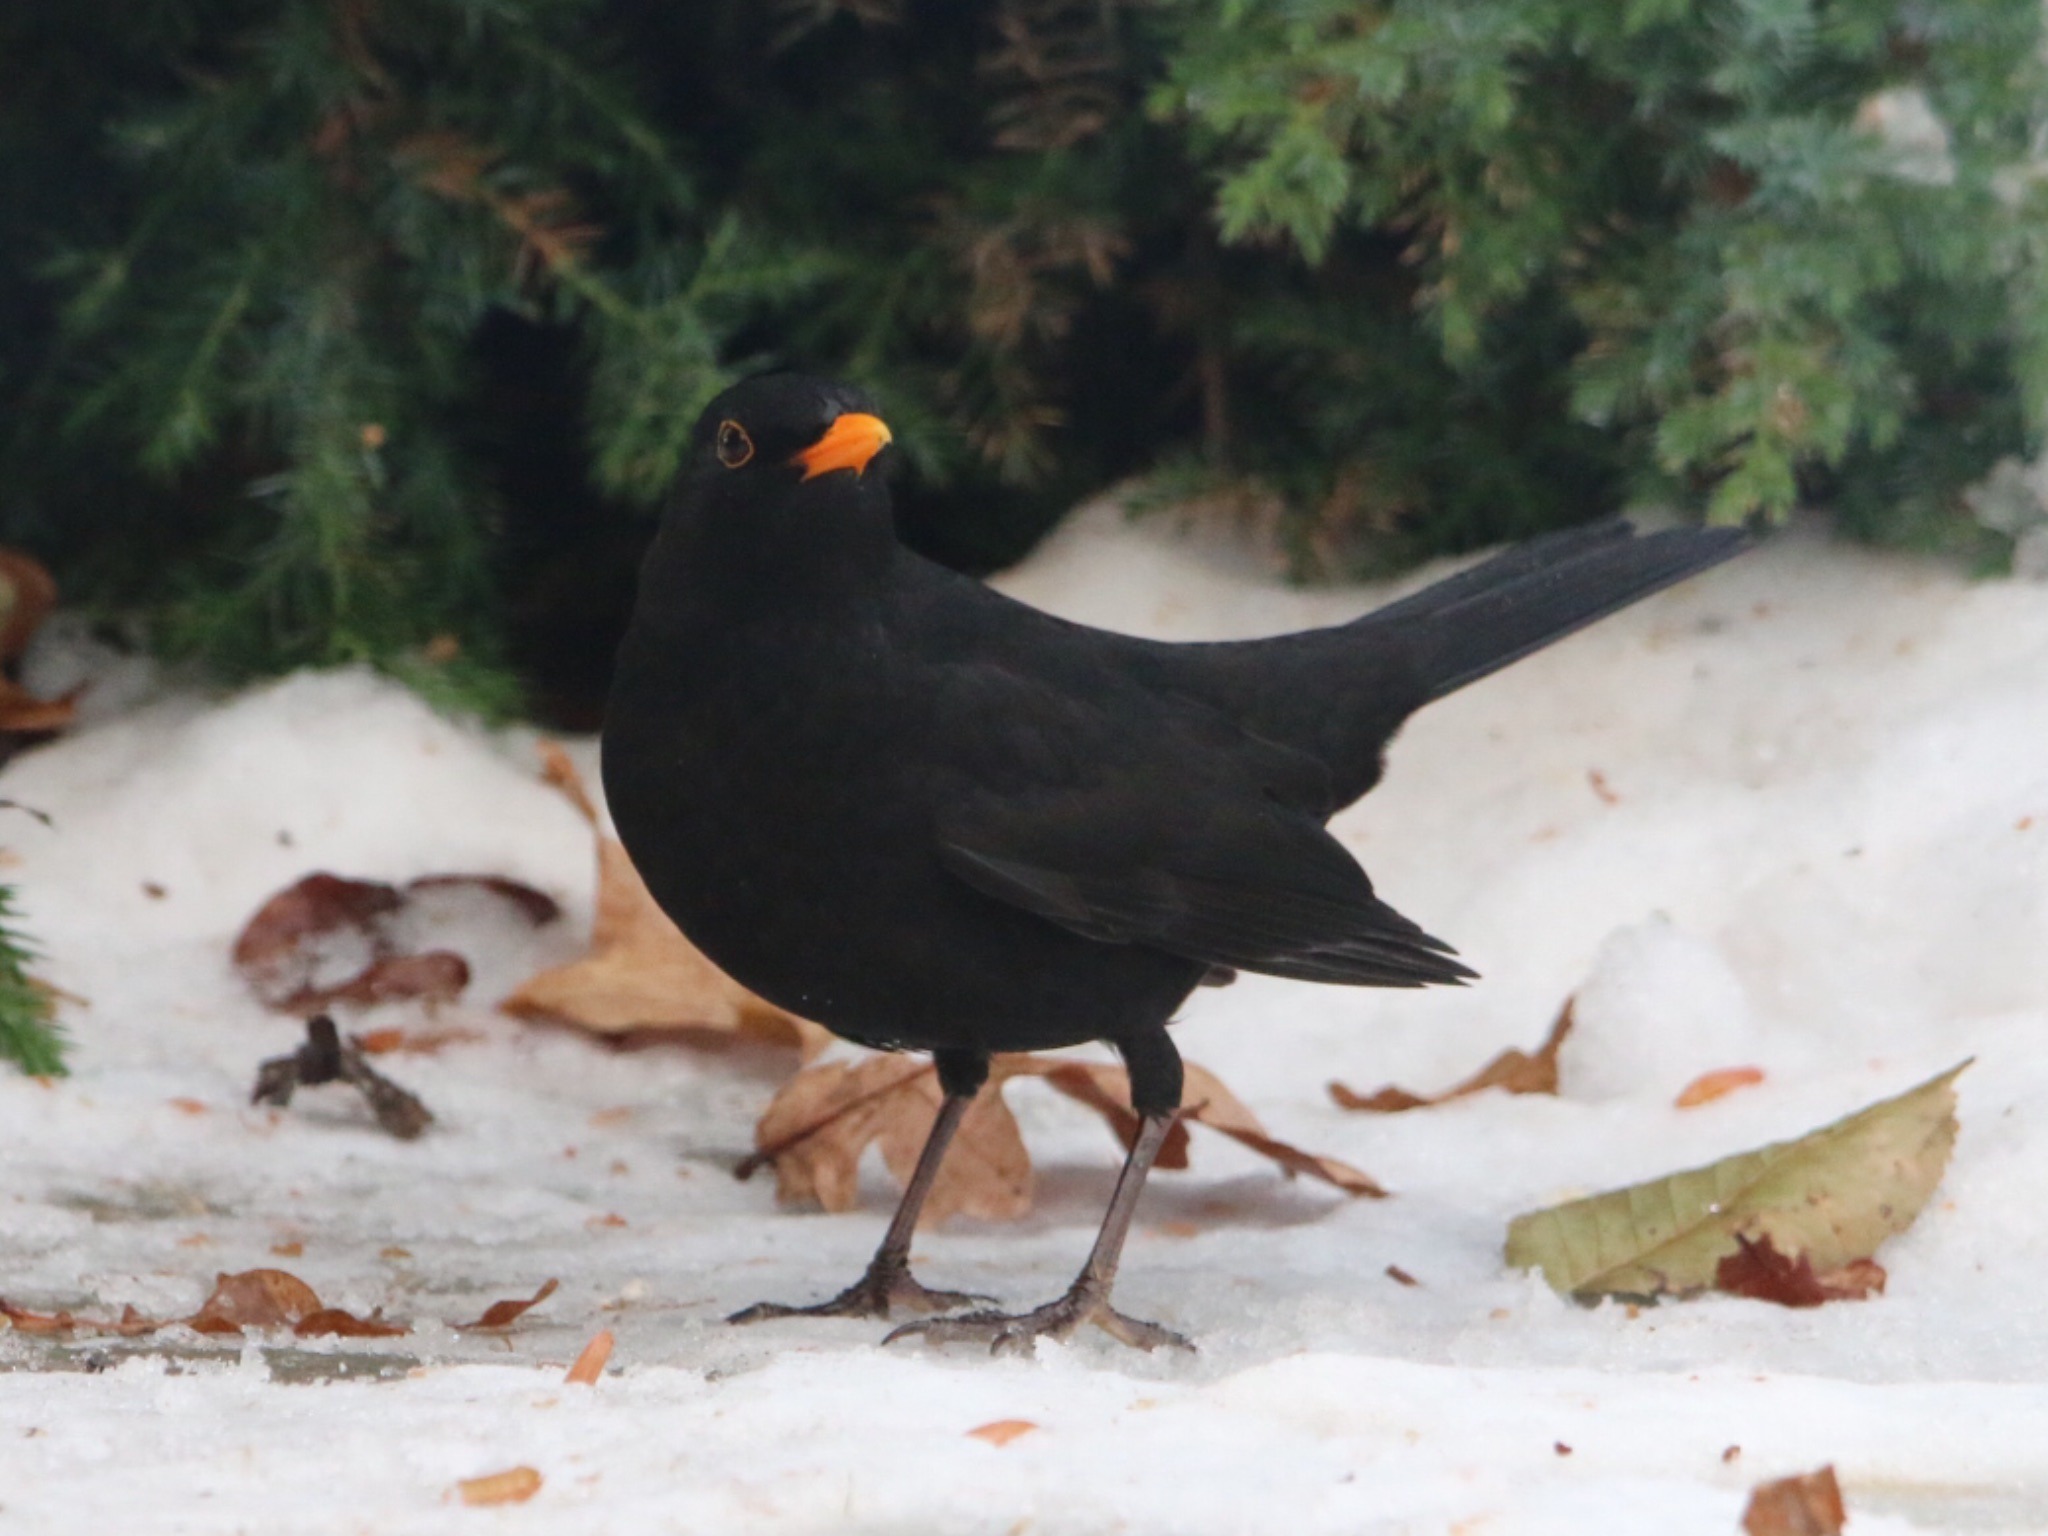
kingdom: Animalia
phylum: Chordata
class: Aves
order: Passeriformes
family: Turdidae
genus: Turdus
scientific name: Turdus merula
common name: Solsort
